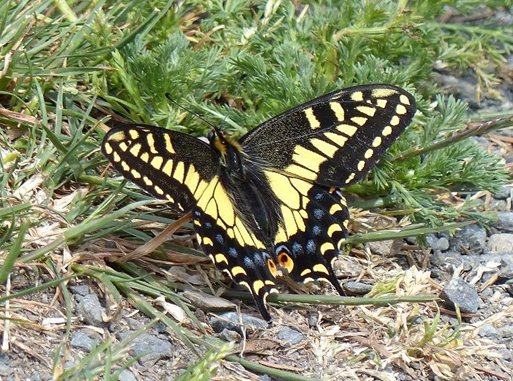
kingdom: Animalia
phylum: Arthropoda
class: Insecta
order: Lepidoptera
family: Papilionidae
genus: Papilio
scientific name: Papilio zelicaon
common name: Anise Swallowtail
